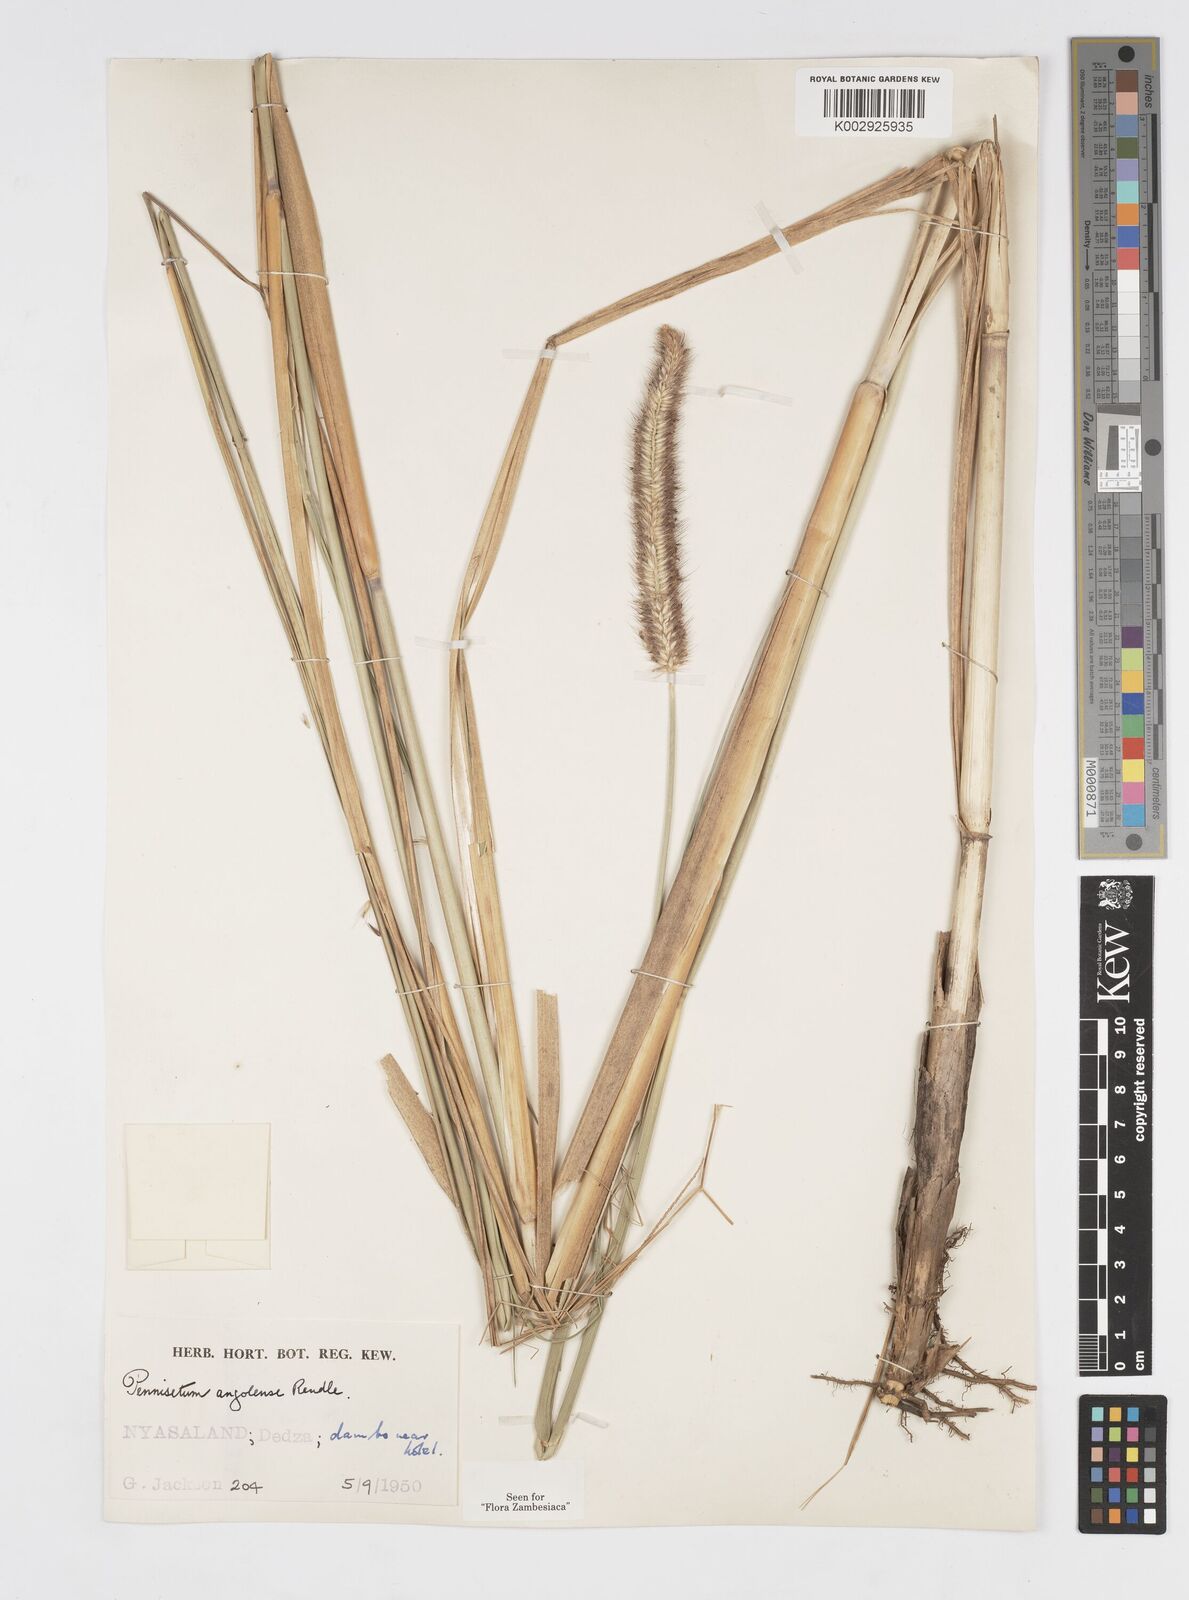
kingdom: Plantae
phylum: Tracheophyta
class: Liliopsida
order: Poales
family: Poaceae
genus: Cenchrus
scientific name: Cenchrus caudatus
